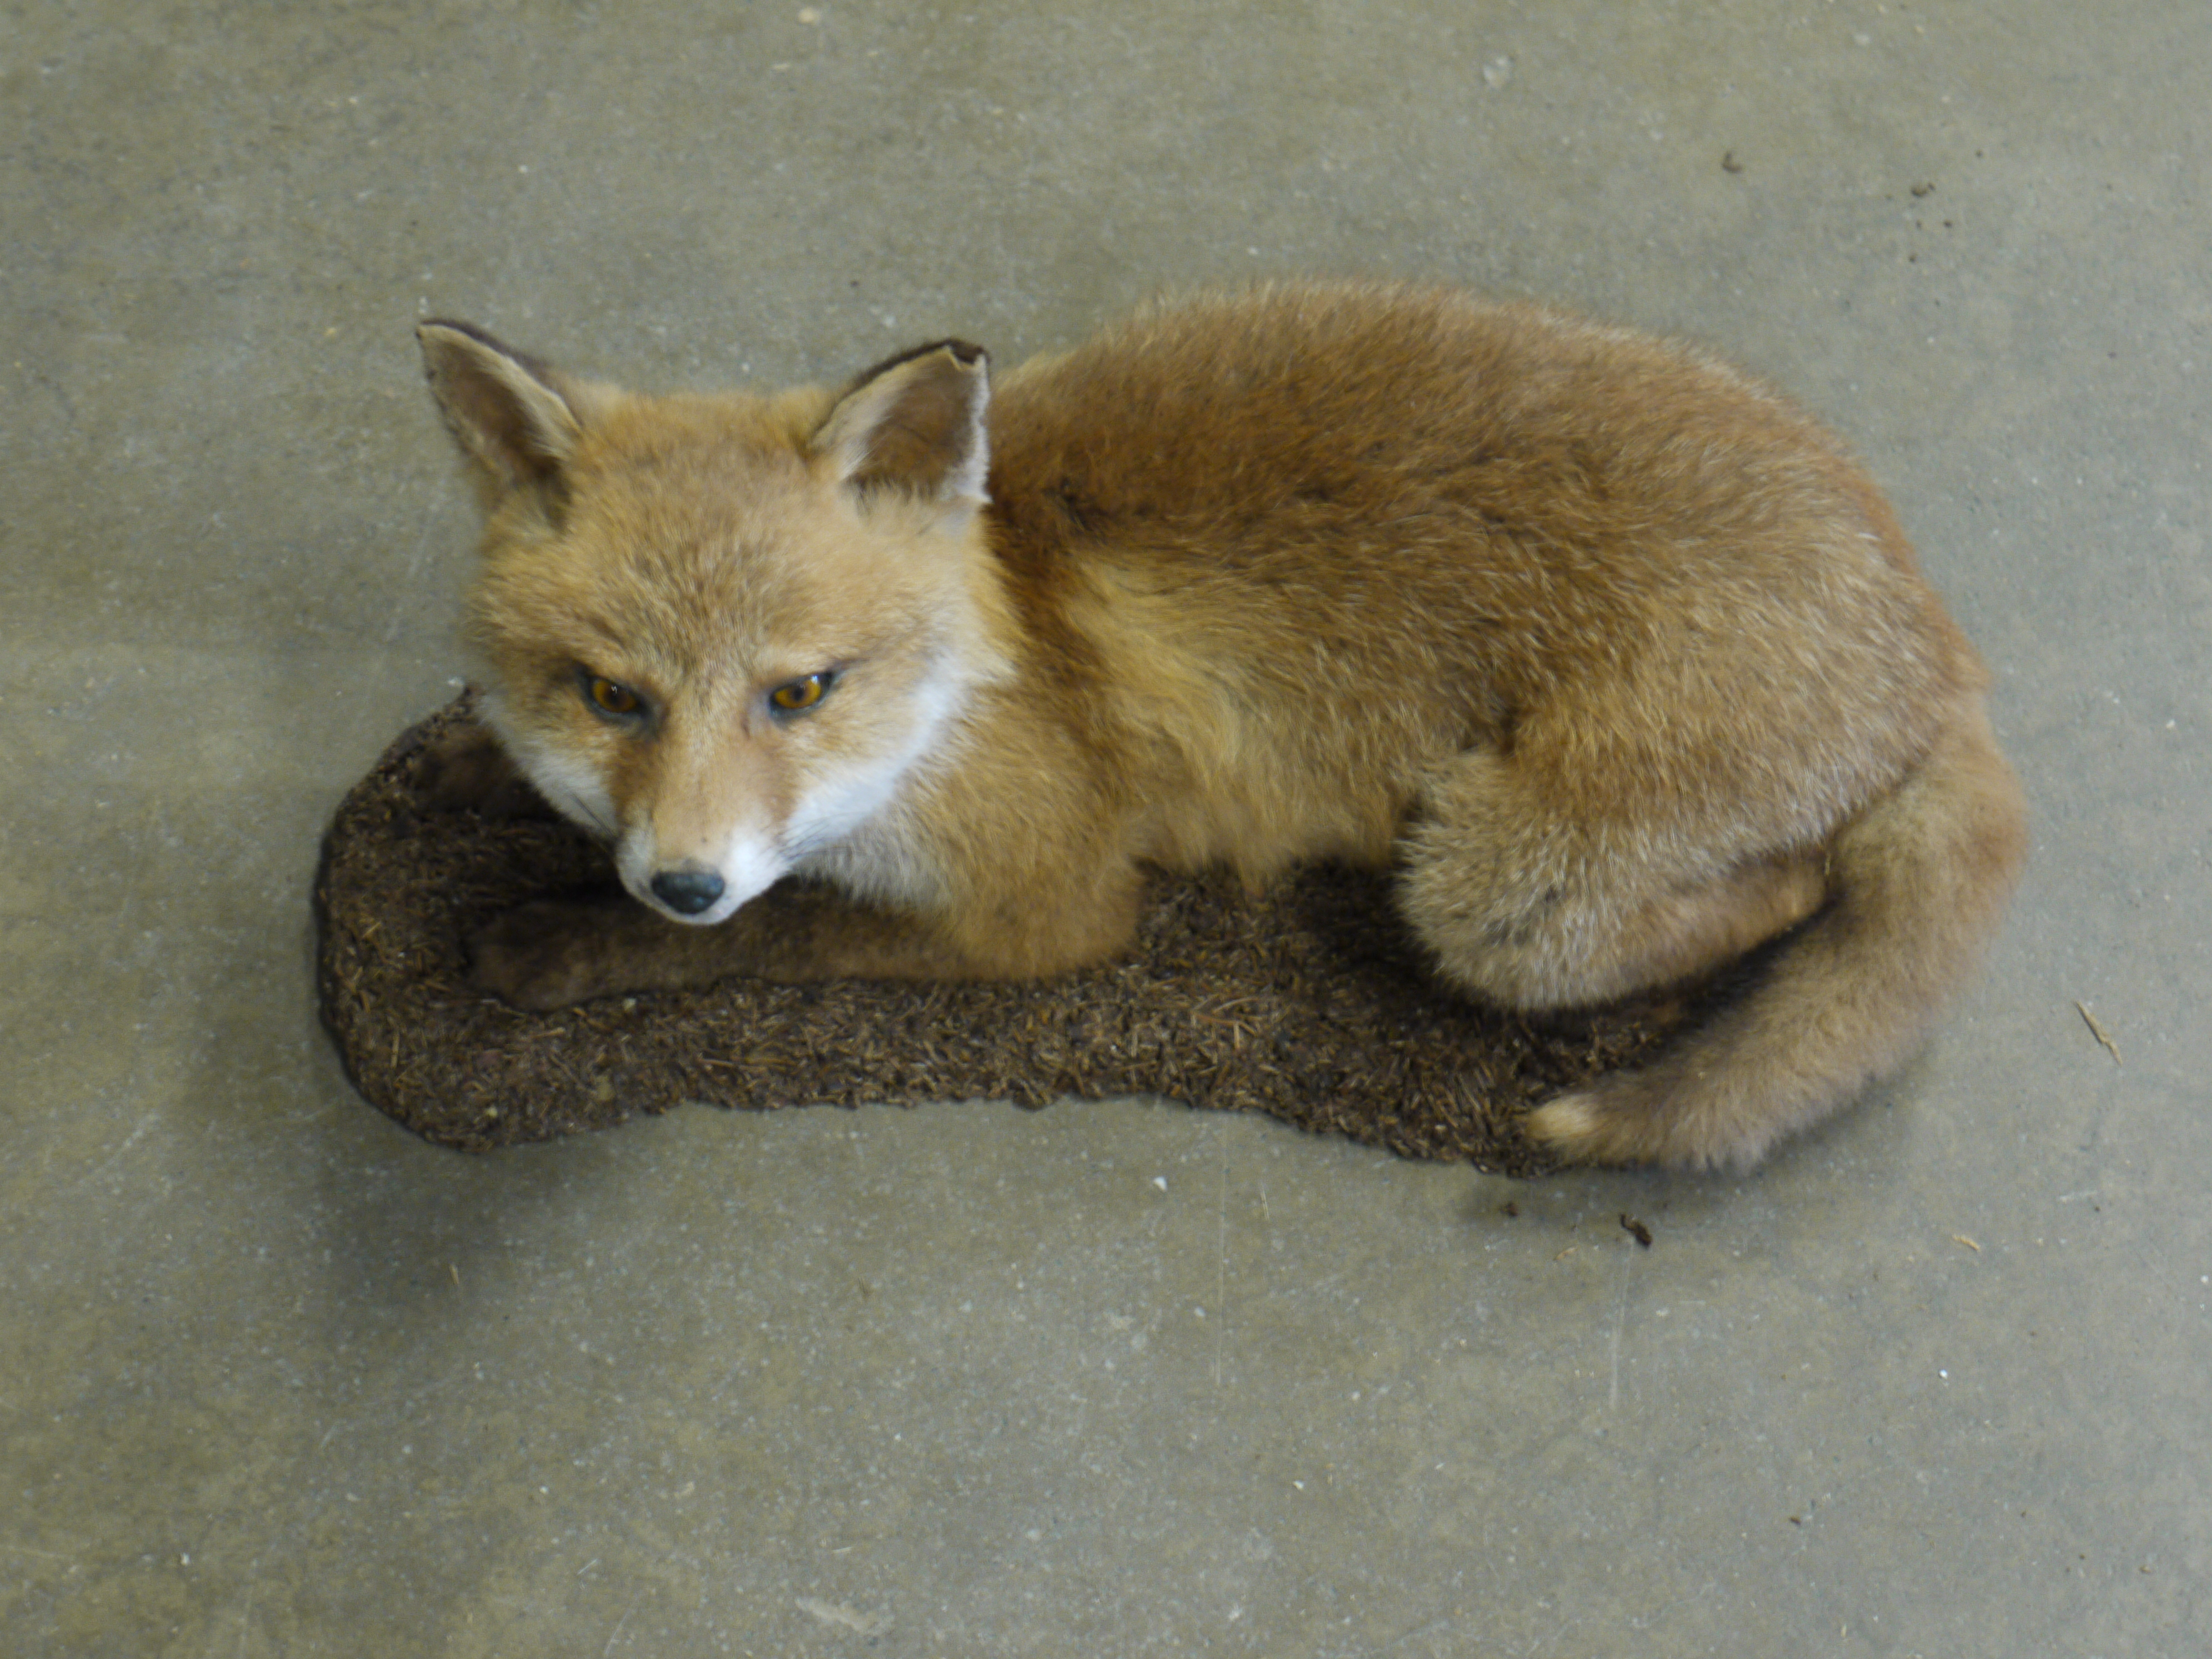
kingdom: Animalia
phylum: Chordata
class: Mammalia
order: Carnivora
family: Canidae
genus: Vulpes
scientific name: Vulpes vulpes
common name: Red fox
